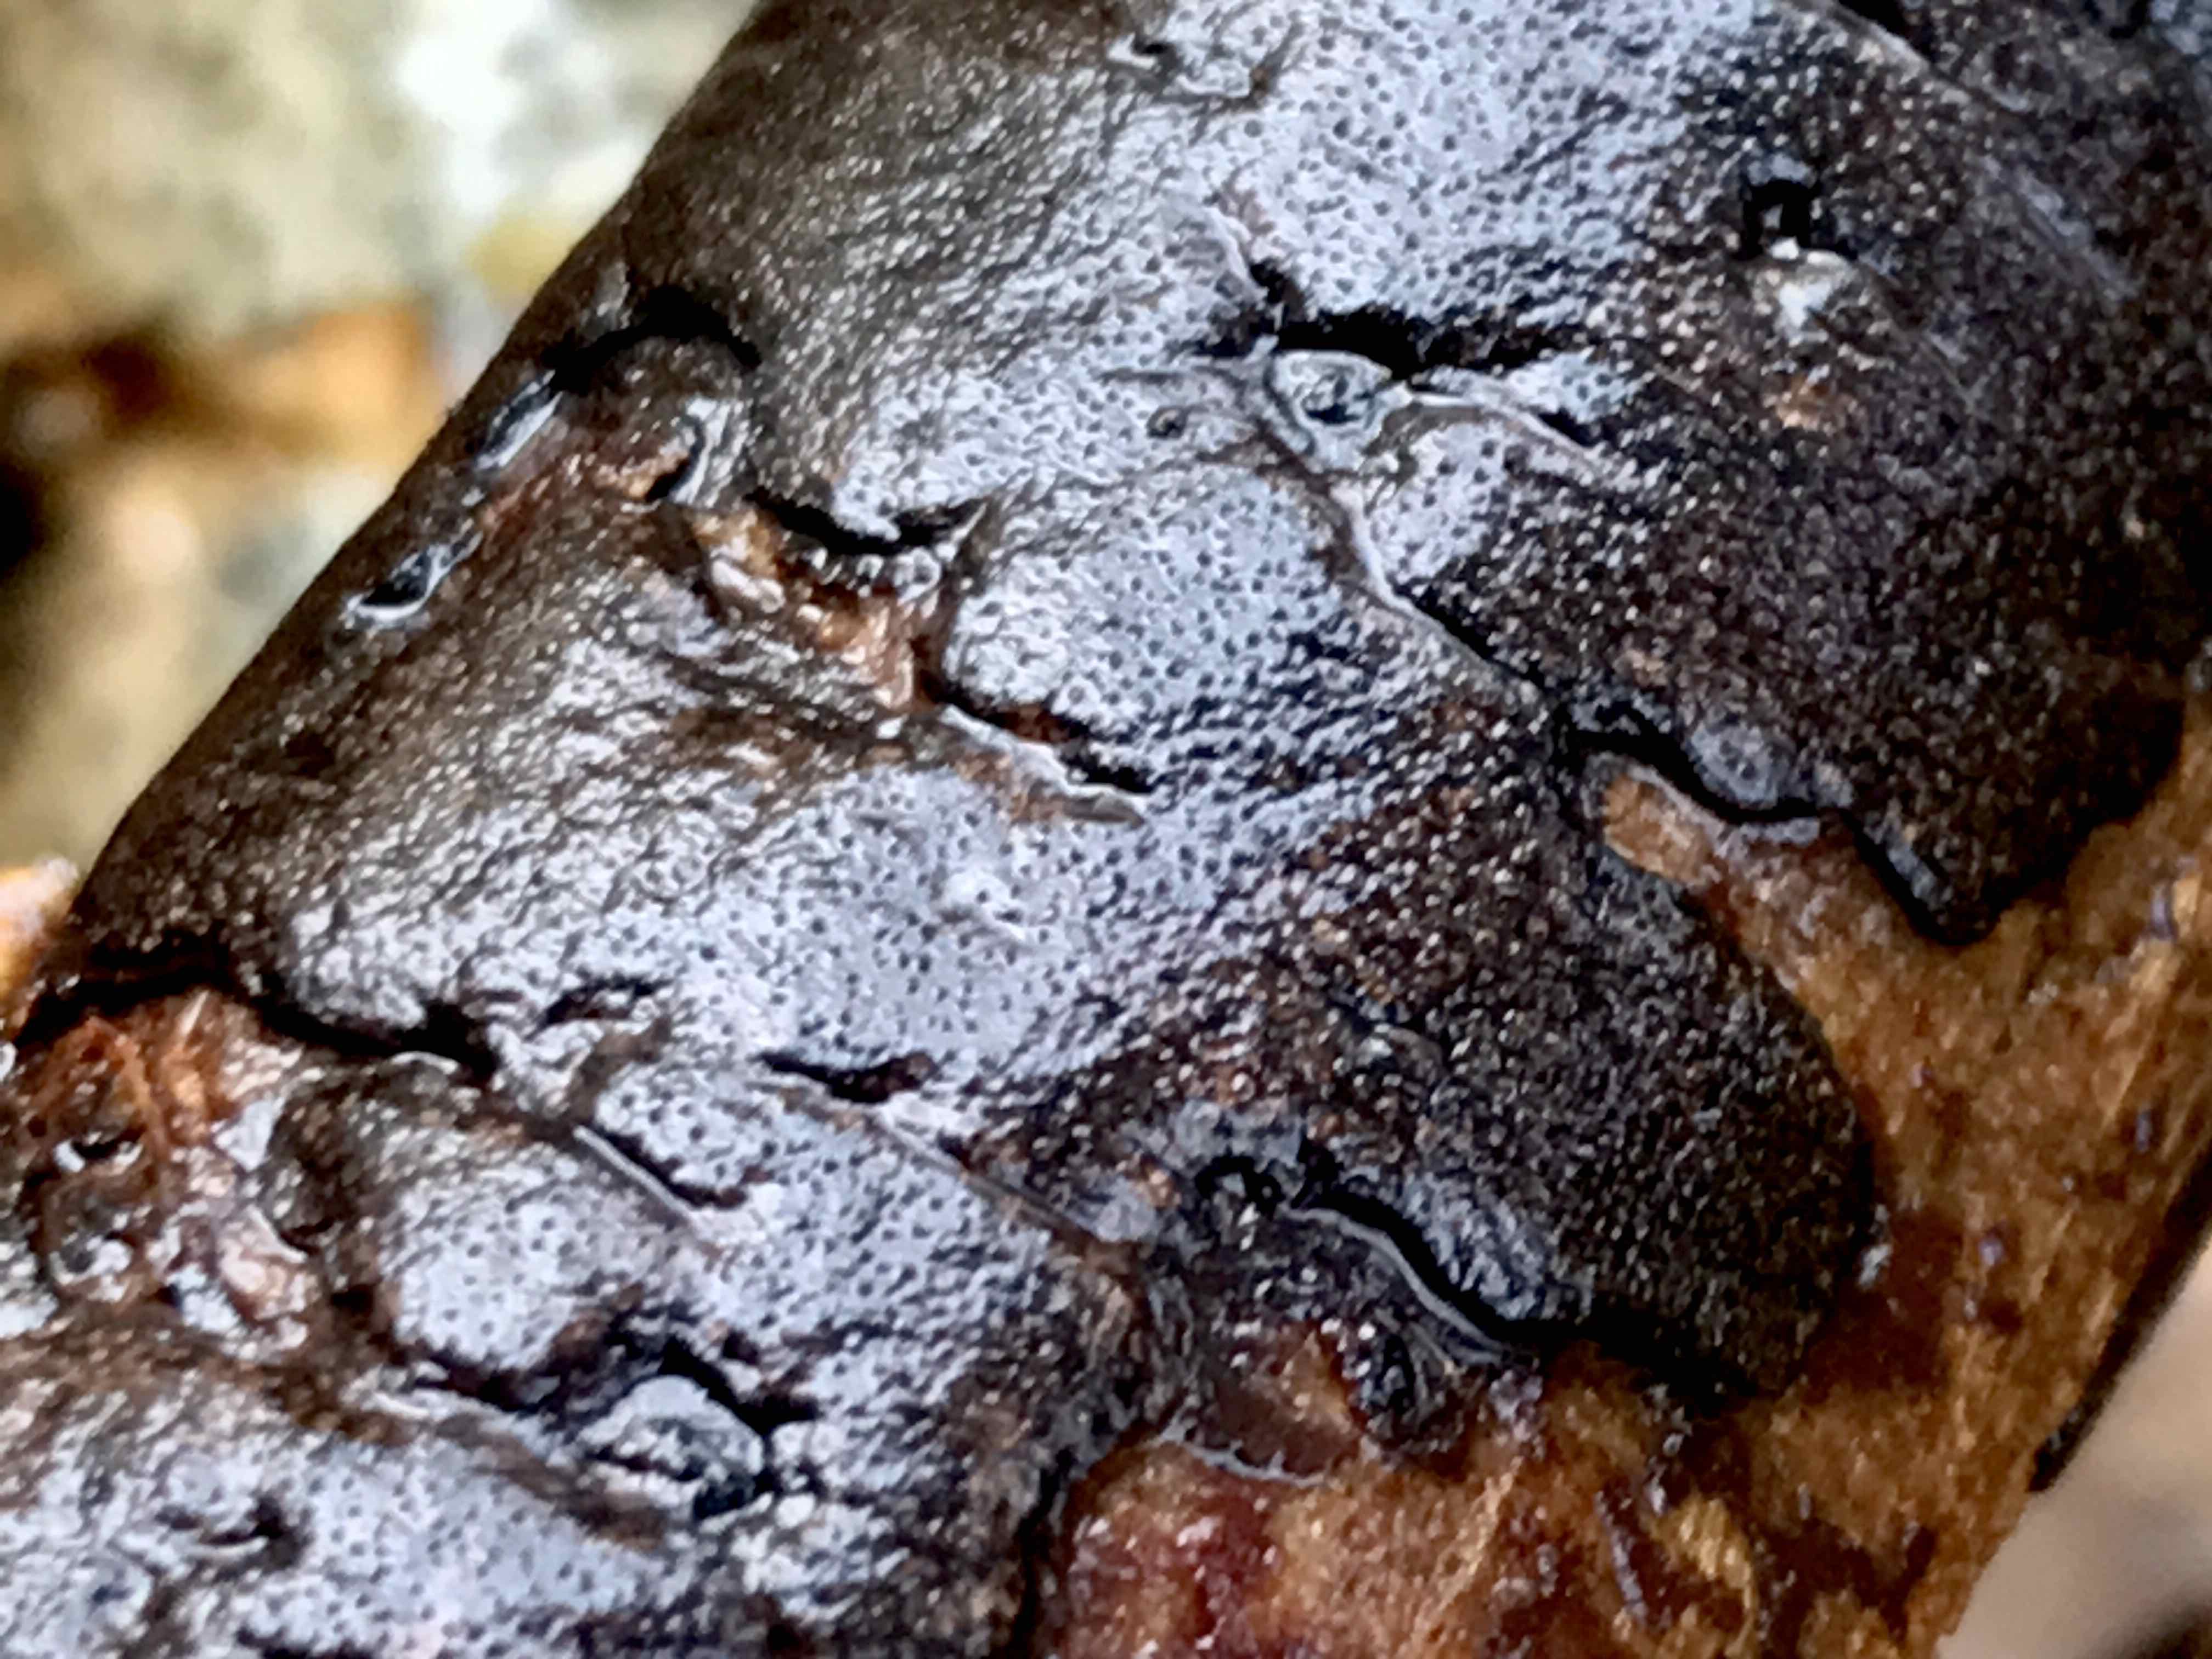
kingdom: Fungi
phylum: Ascomycota
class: Sordariomycetes
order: Xylariales
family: Diatrypaceae
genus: Diatrype
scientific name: Diatrype
